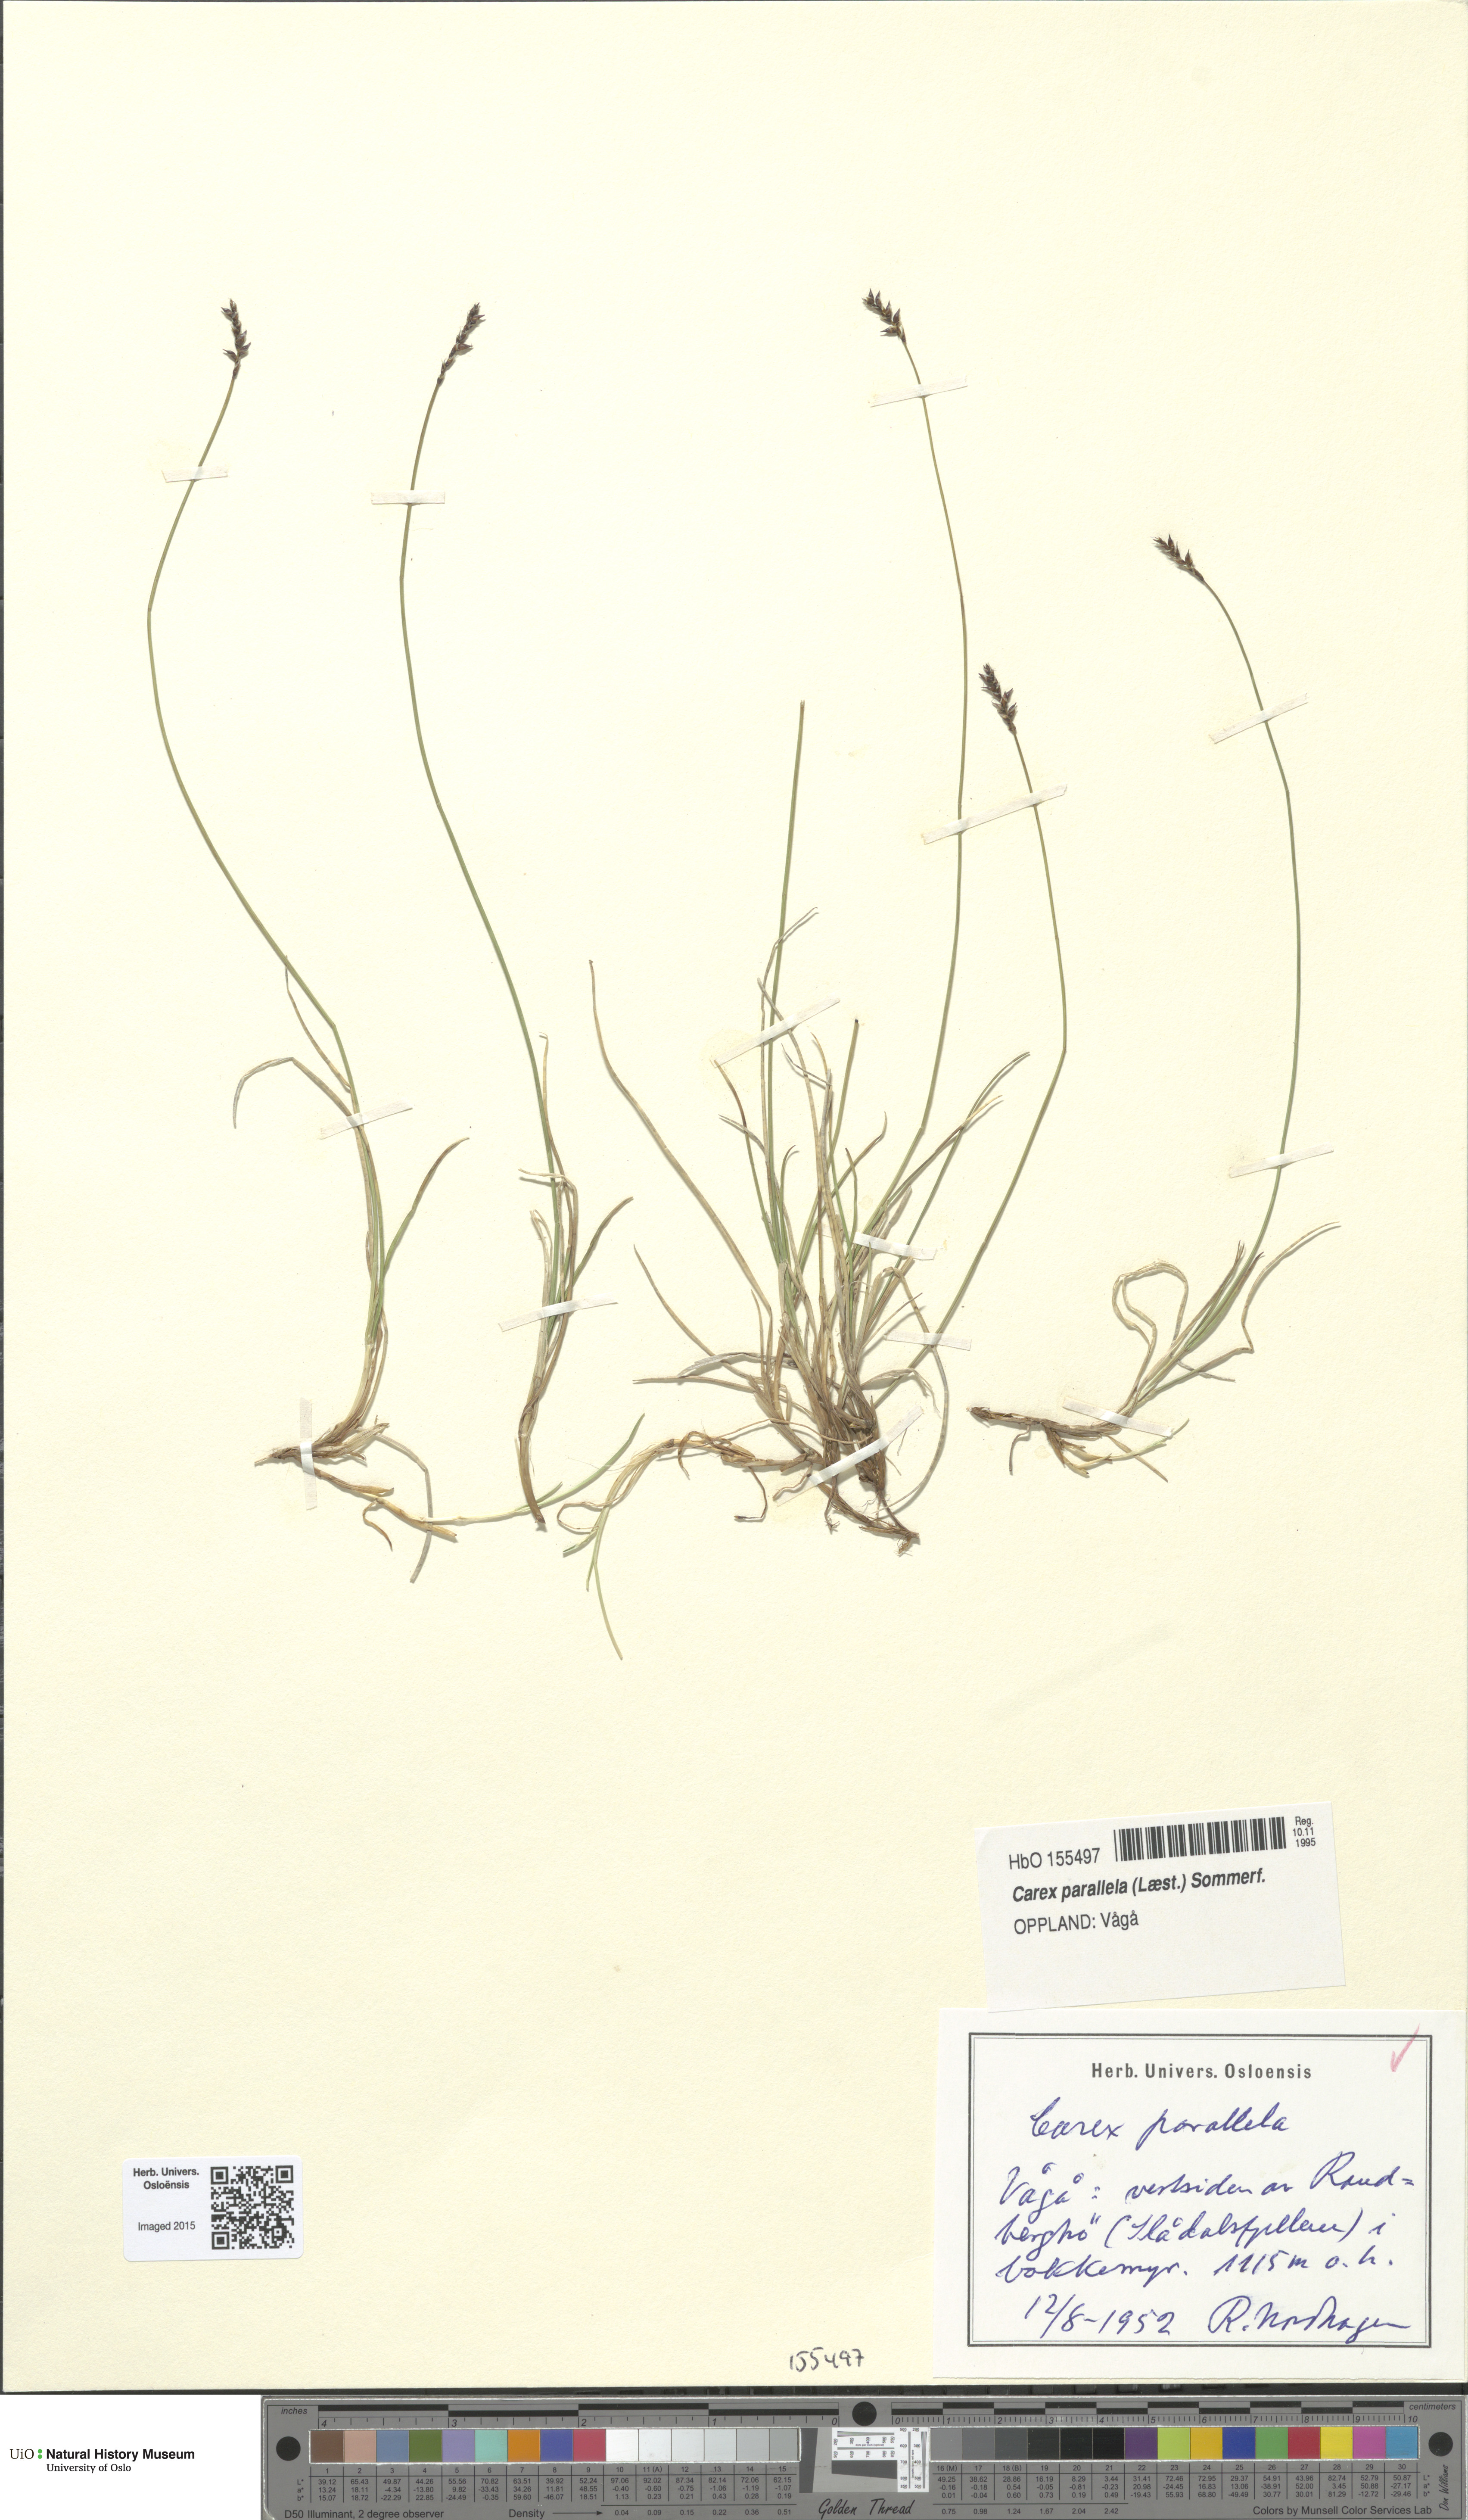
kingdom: Plantae
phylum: Tracheophyta
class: Liliopsida
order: Poales
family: Cyperaceae
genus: Carex
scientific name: Carex parallela
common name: Parallel sedge
